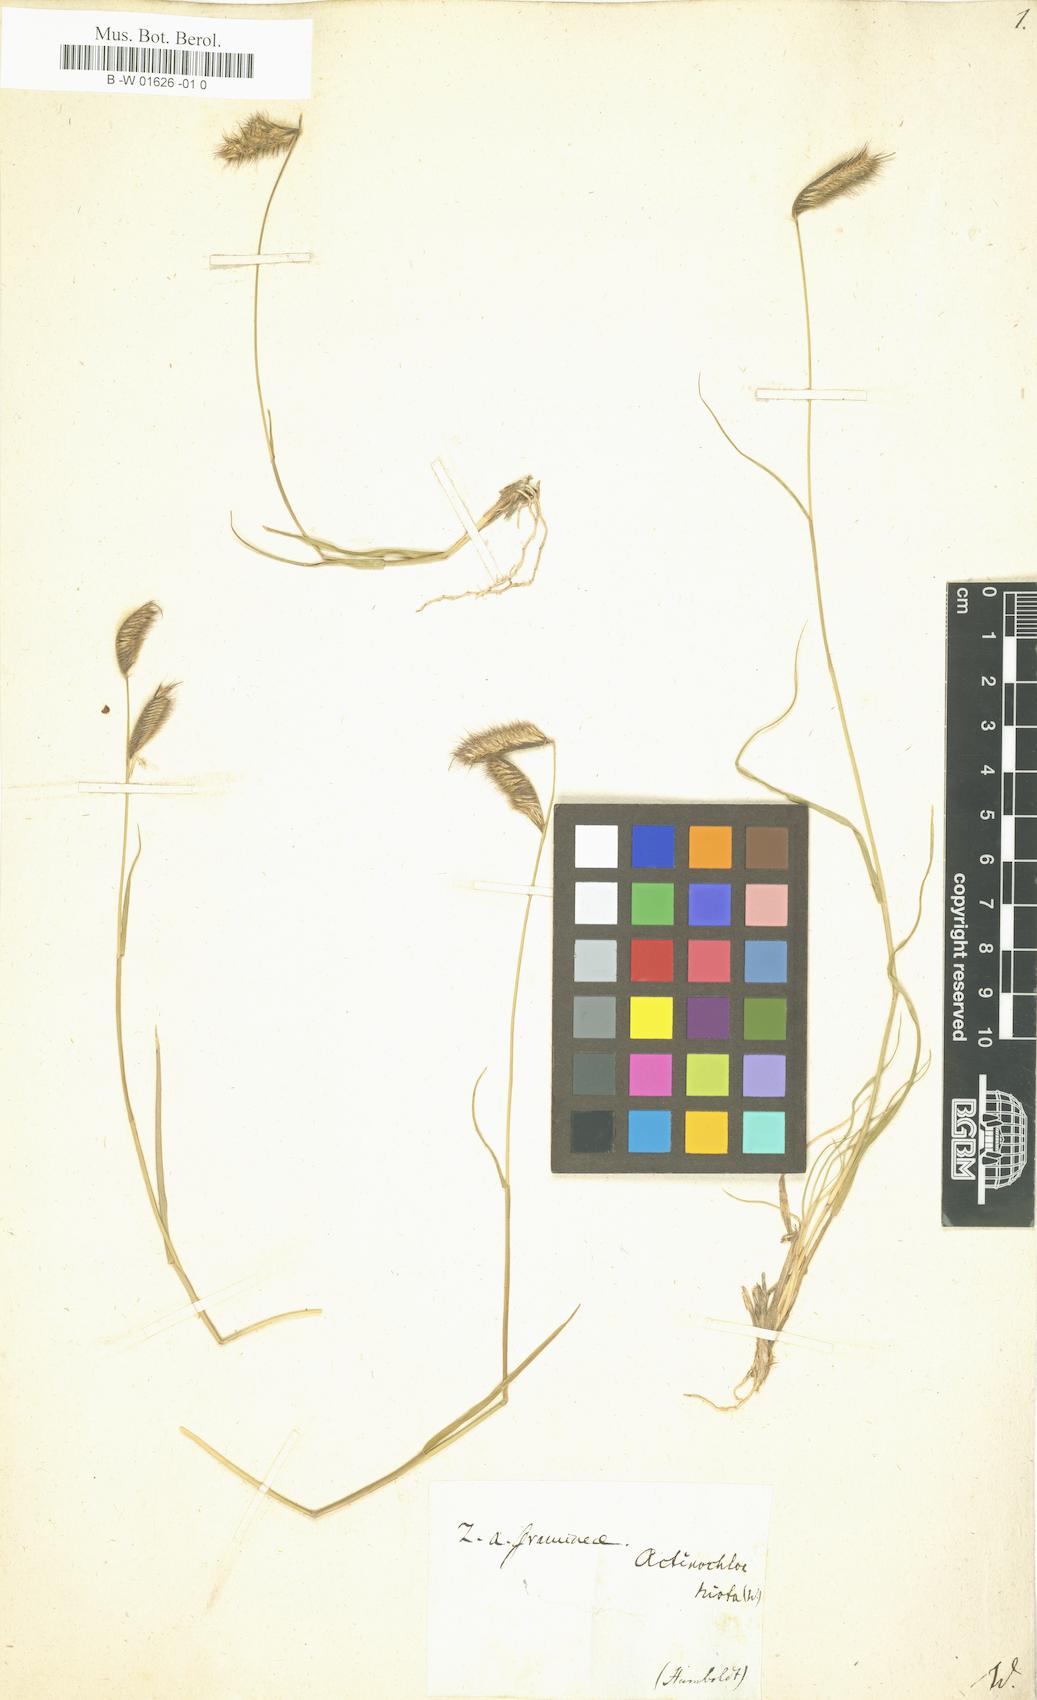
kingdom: Plantae
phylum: Tracheophyta
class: Liliopsida
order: Poales
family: Poaceae
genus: Bouteloua
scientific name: Bouteloua hirsuta
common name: Hairy grama
